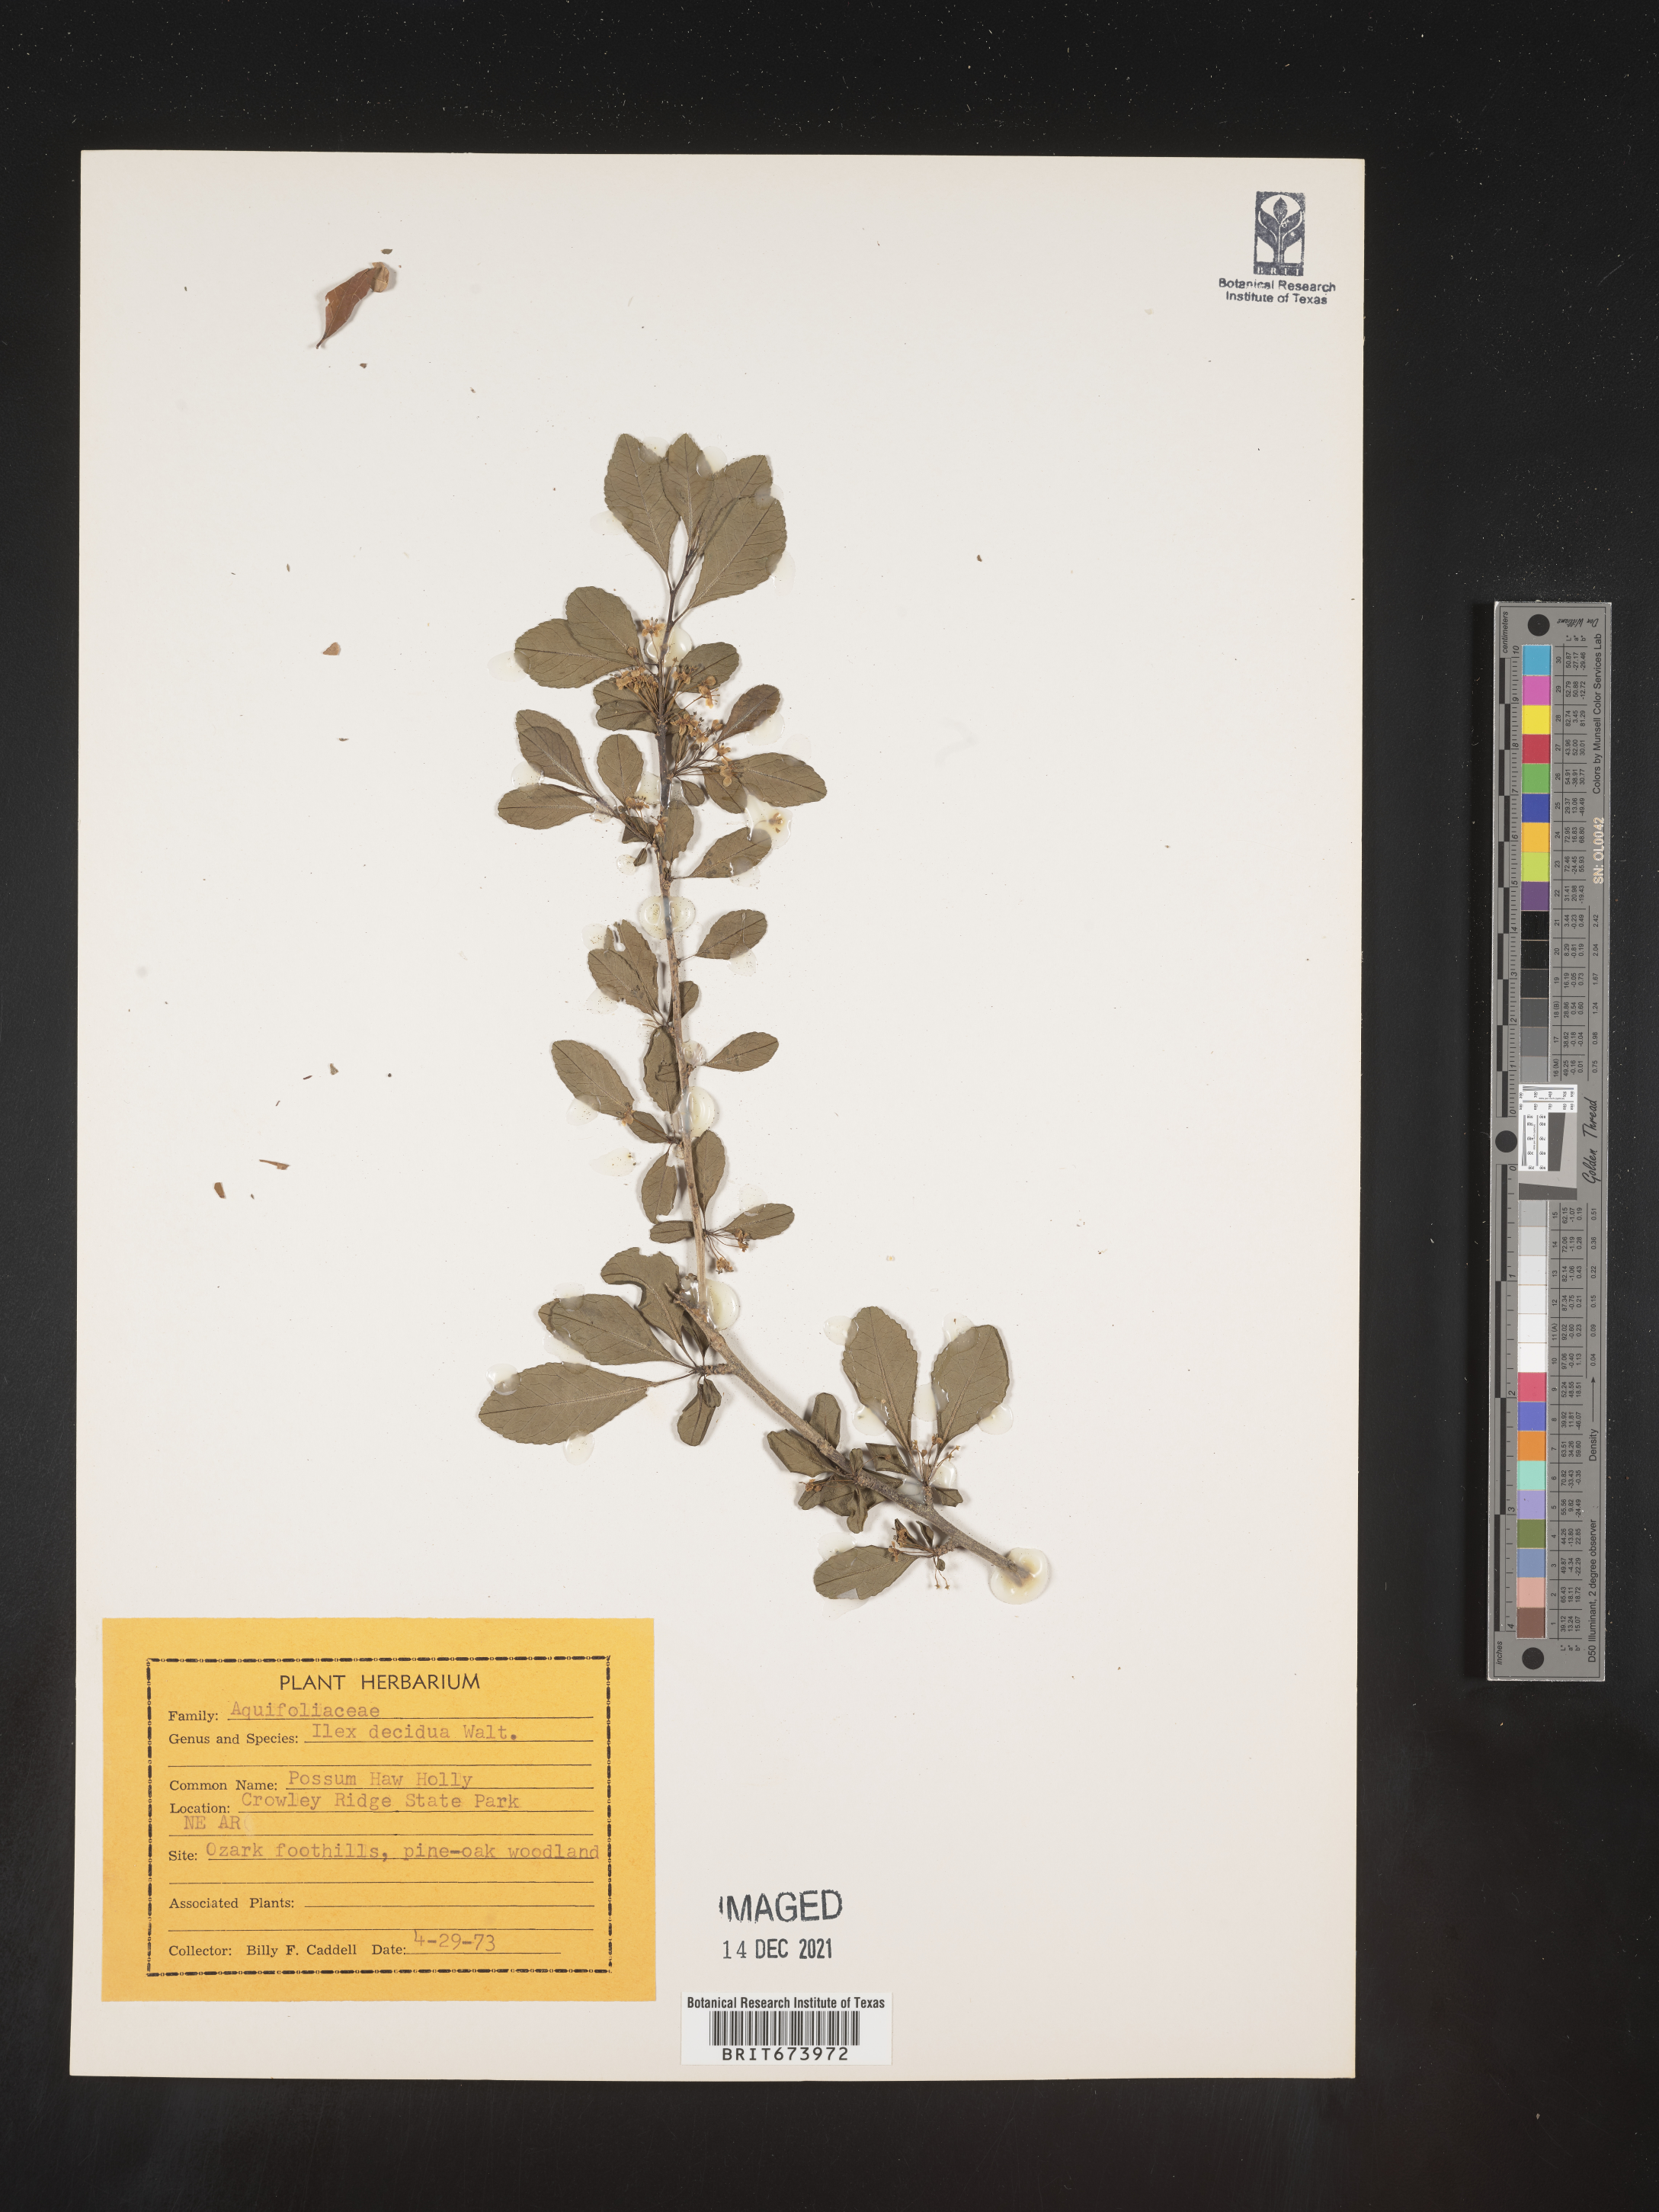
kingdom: Plantae
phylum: Tracheophyta
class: Magnoliopsida
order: Aquifoliales
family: Aquifoliaceae
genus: Ilex
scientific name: Ilex decidua
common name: Possum-haw
